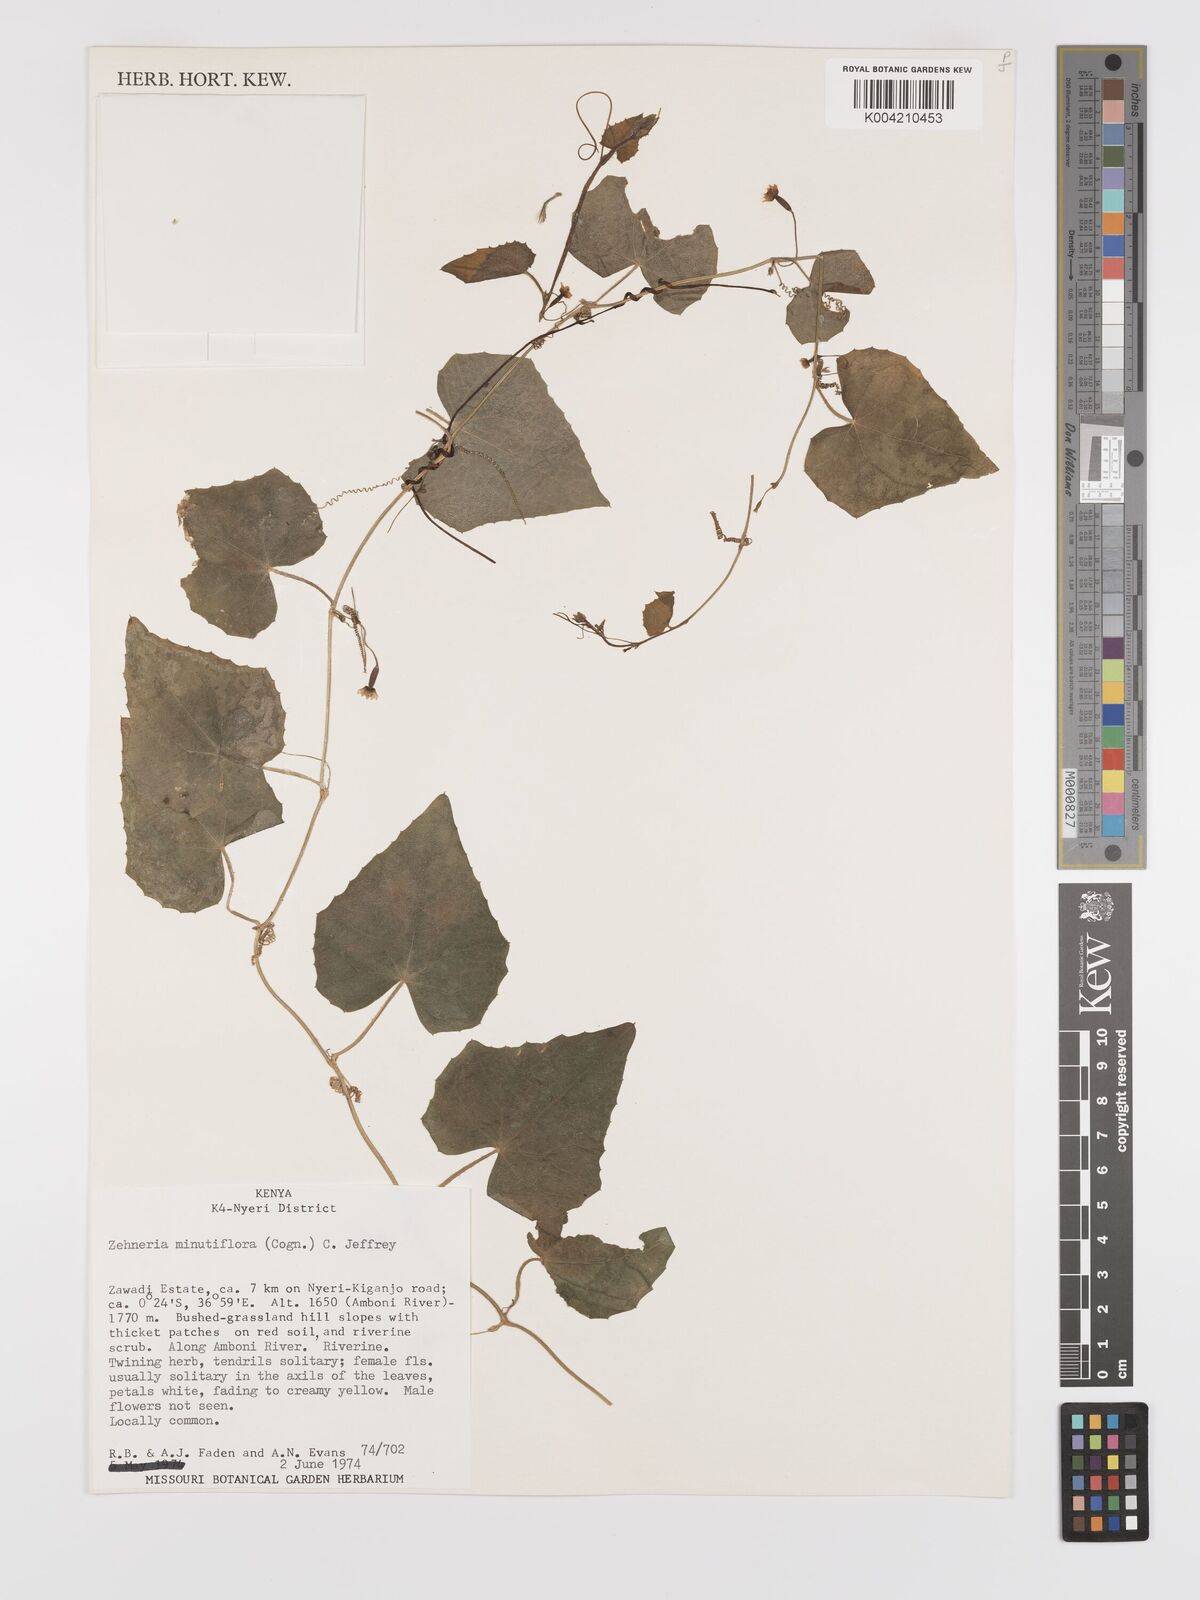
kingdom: Plantae
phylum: Tracheophyta
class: Magnoliopsida
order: Cucurbitales
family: Cucurbitaceae
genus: Zehneria
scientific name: Zehneria minutiflora
